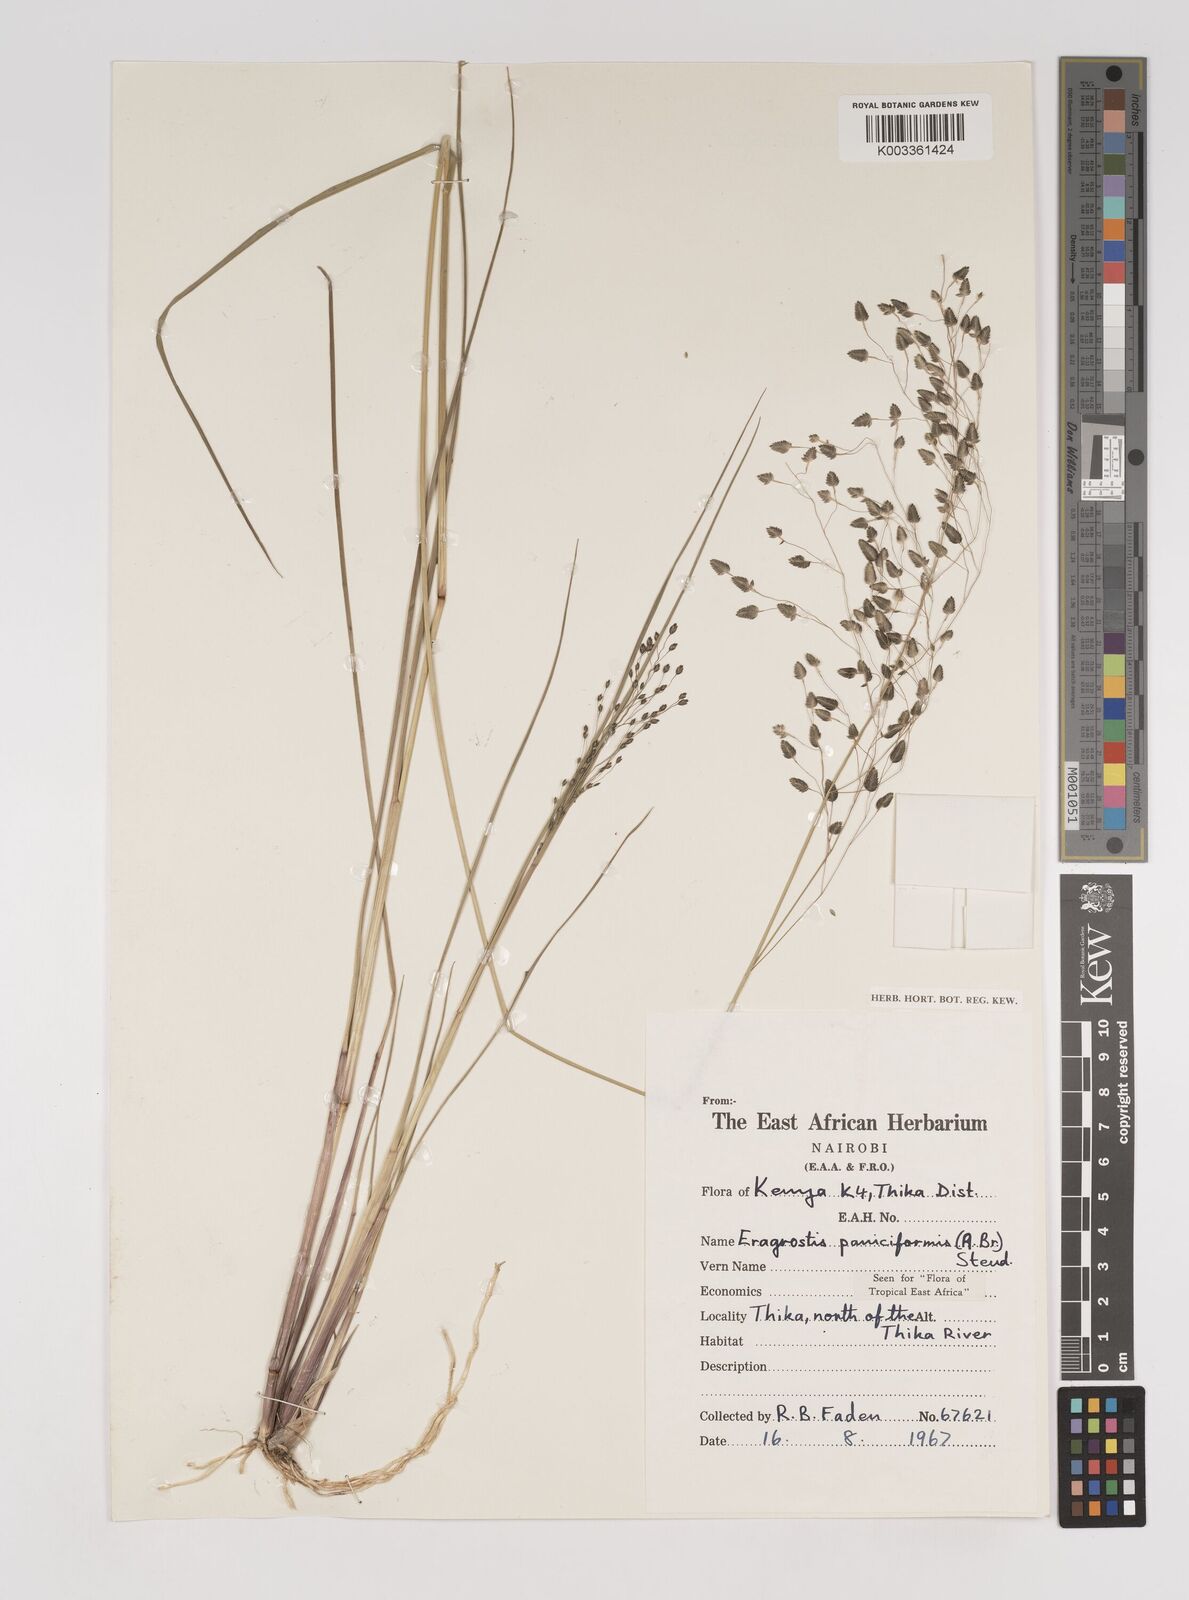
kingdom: Plantae
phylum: Tracheophyta
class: Liliopsida
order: Poales
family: Poaceae
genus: Eragrostis
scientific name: Eragrostis paniciformis
